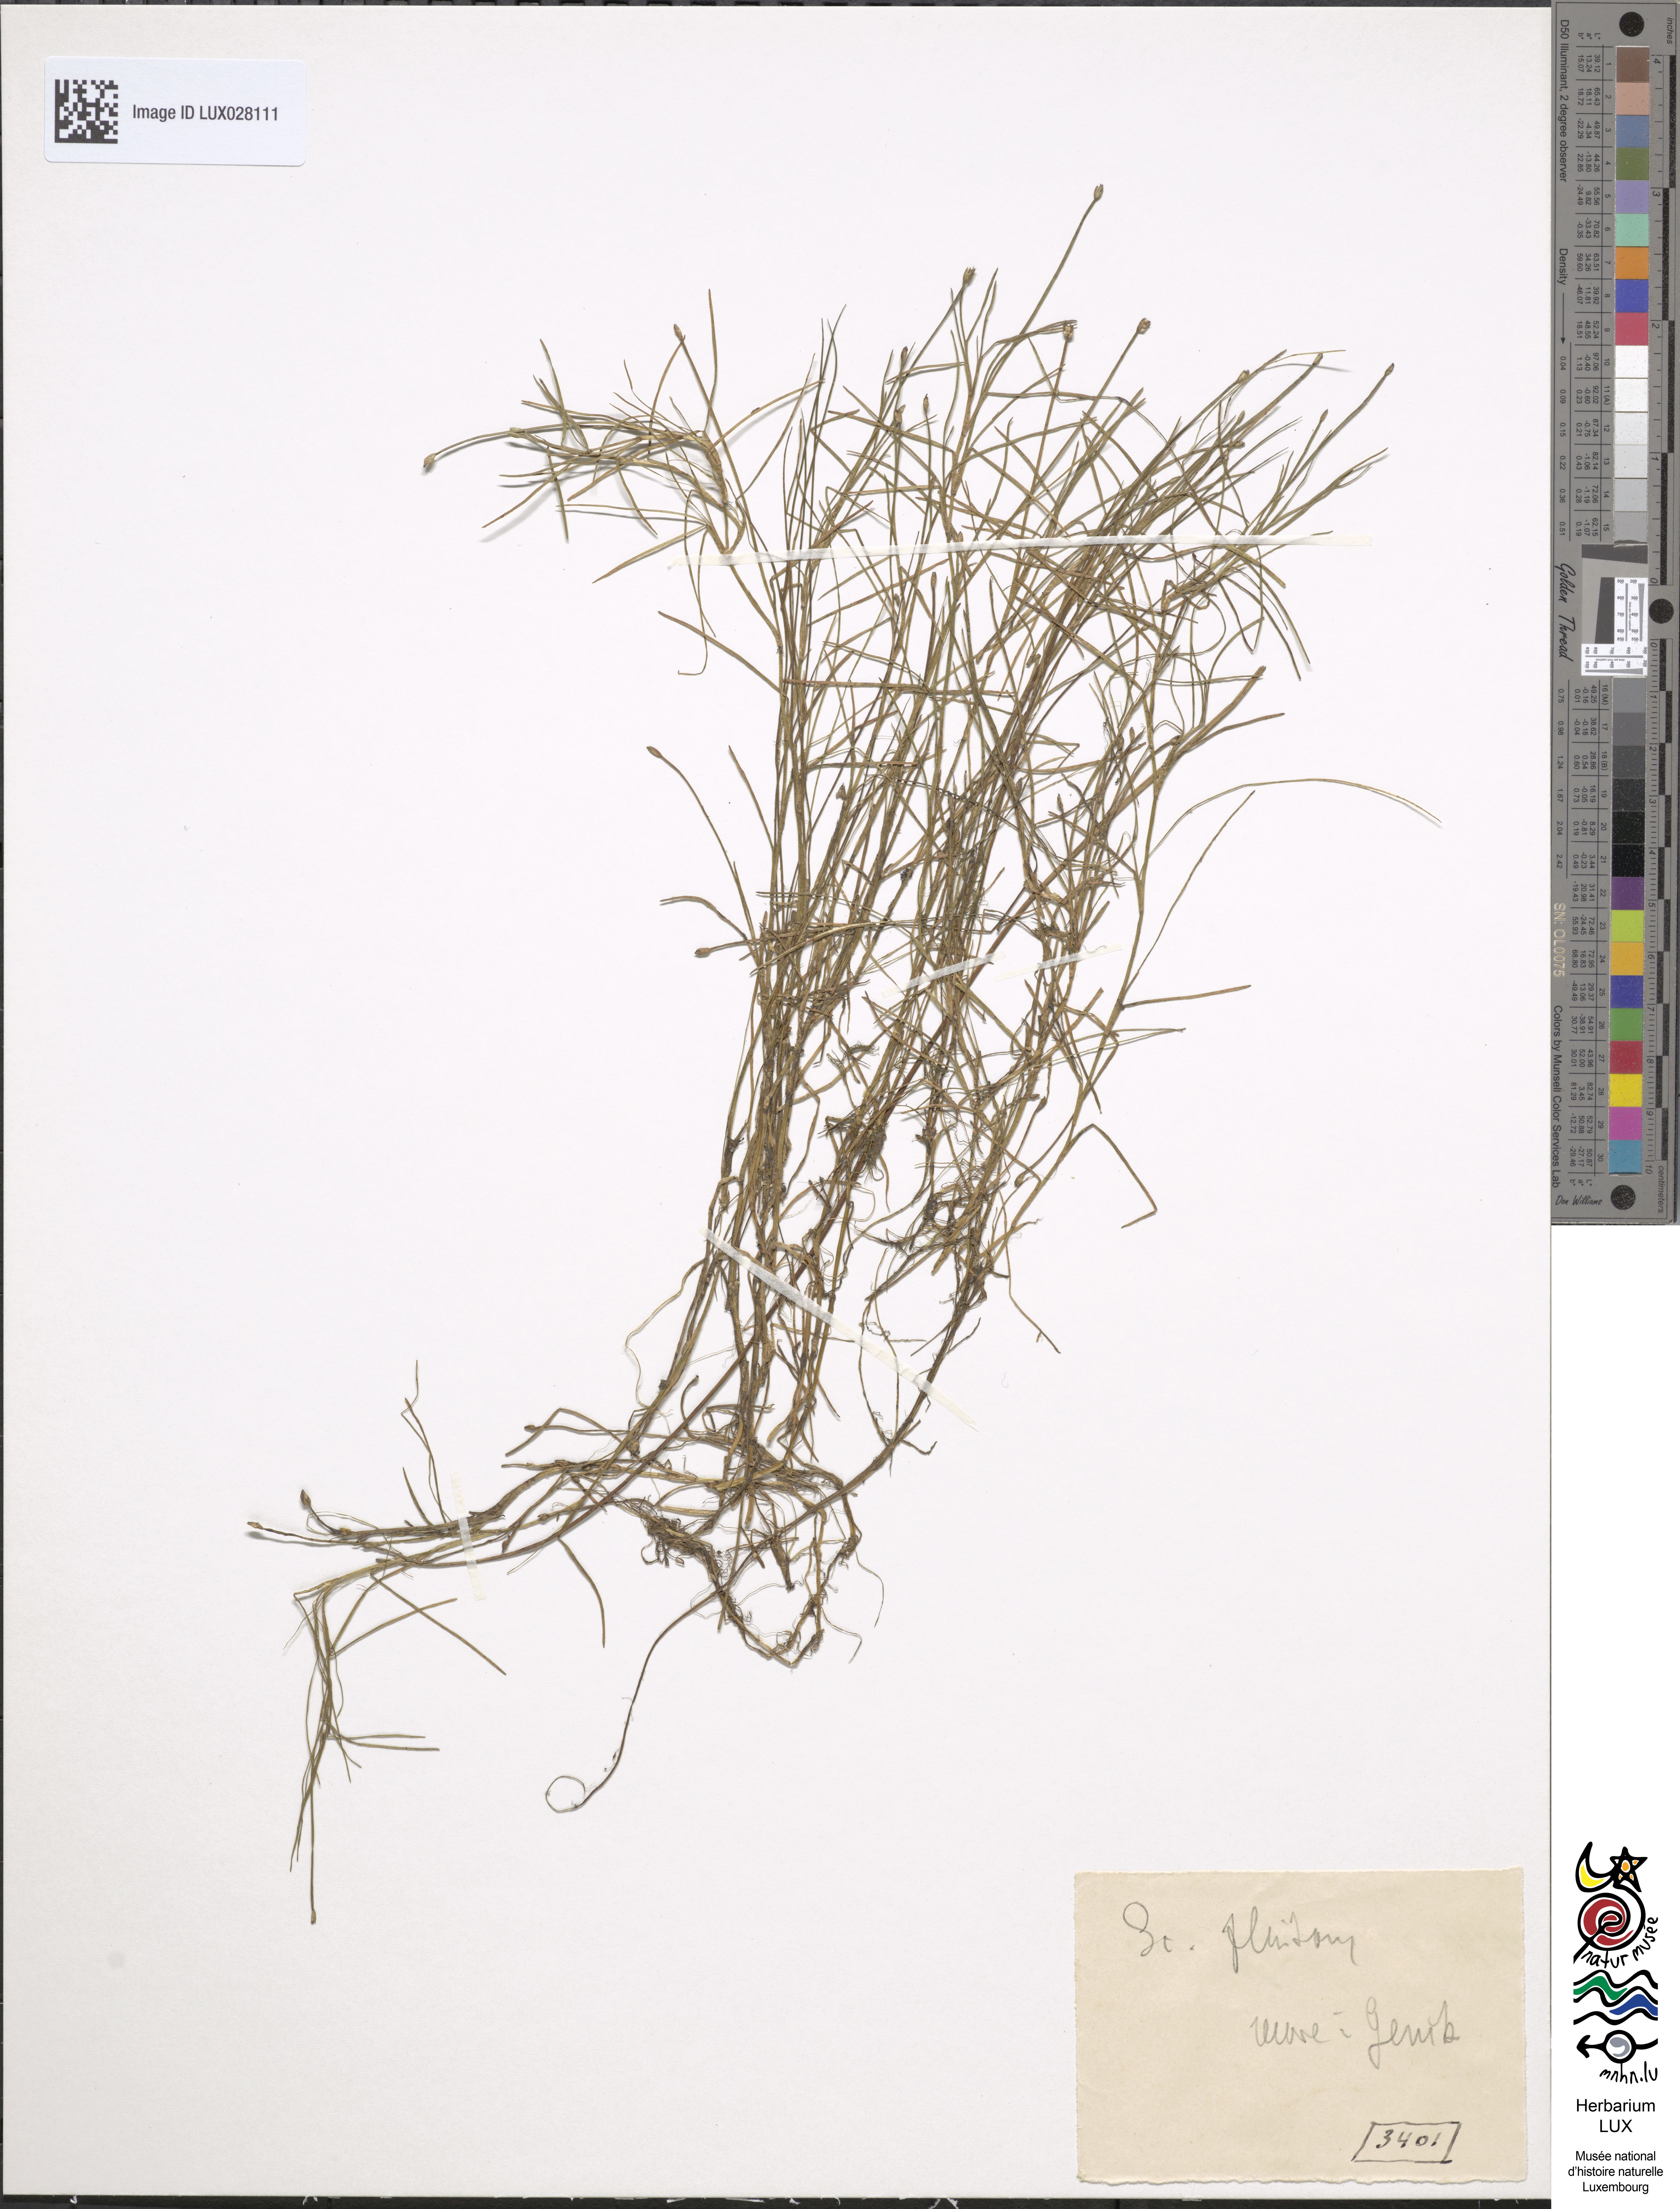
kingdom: Plantae
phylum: Tracheophyta
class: Liliopsida
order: Poales
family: Cyperaceae
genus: Isolepis
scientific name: Isolepis fluitans
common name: Floating club-rush
